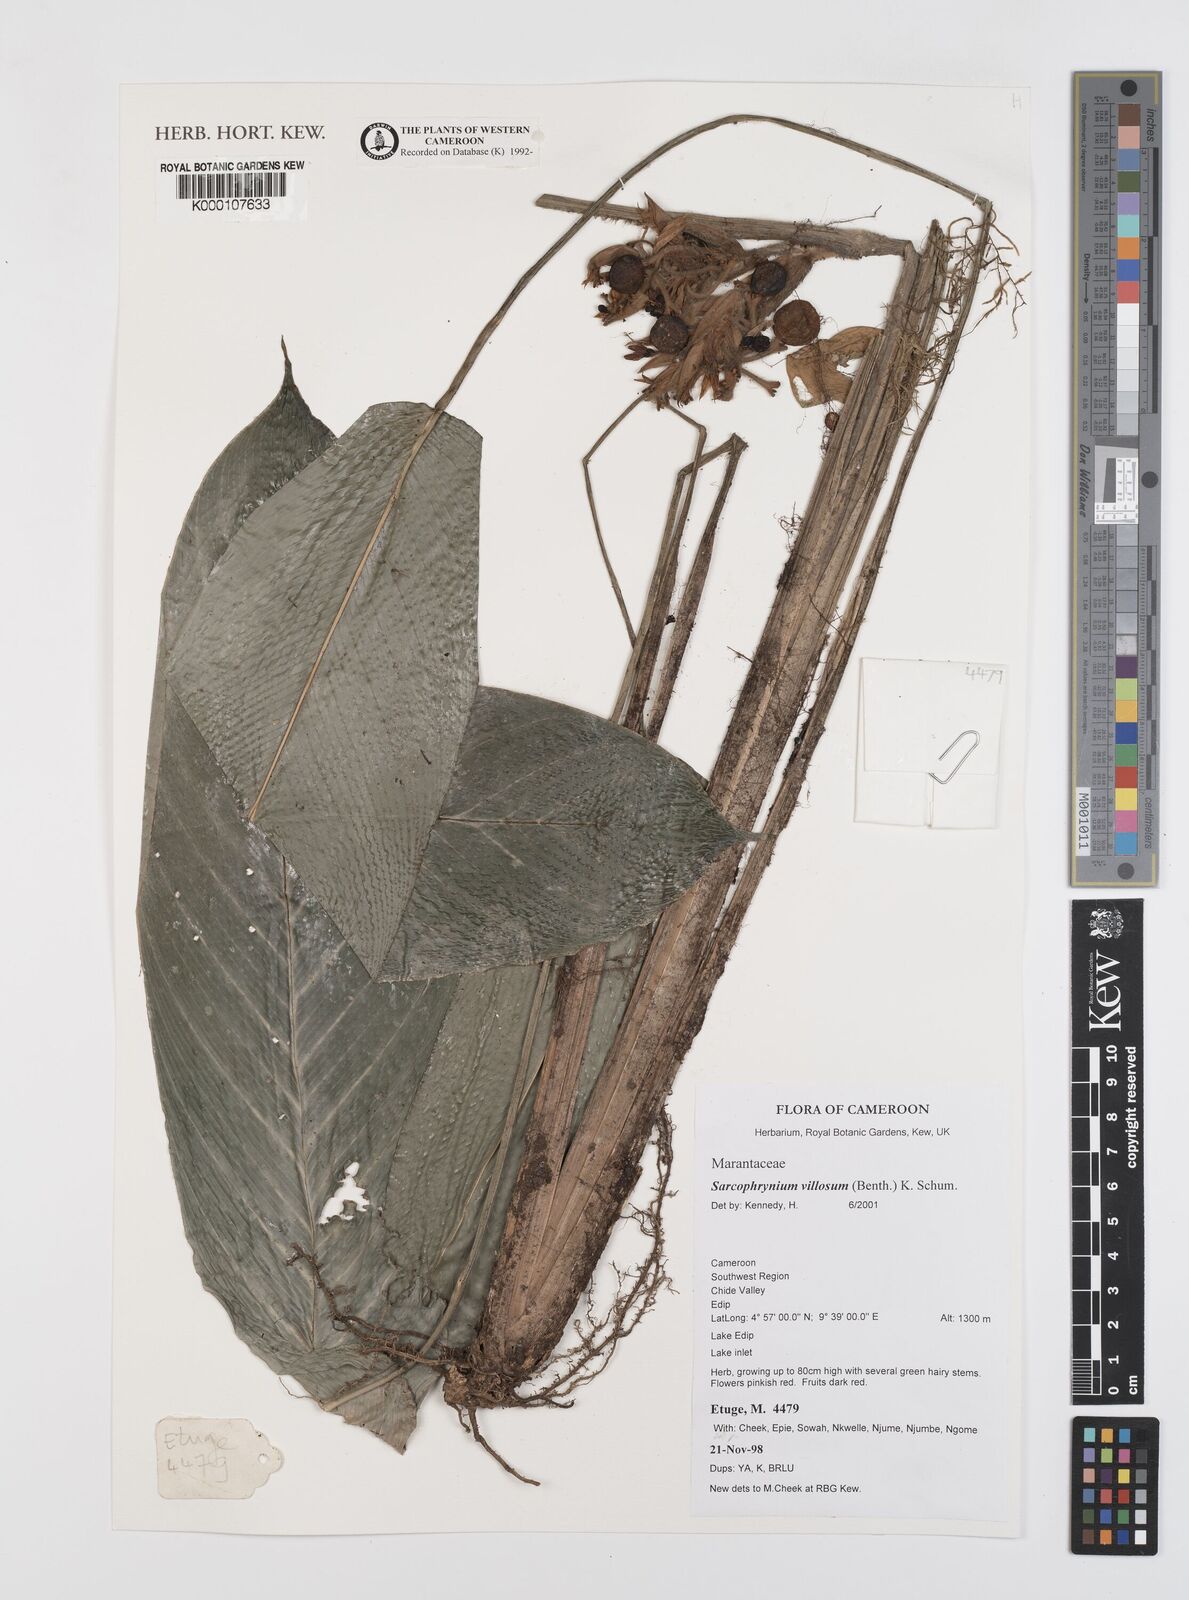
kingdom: Plantae
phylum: Tracheophyta
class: Liliopsida
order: Zingiberales
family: Marantaceae
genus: Sarcophrynium
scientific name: Sarcophrynium villosum
